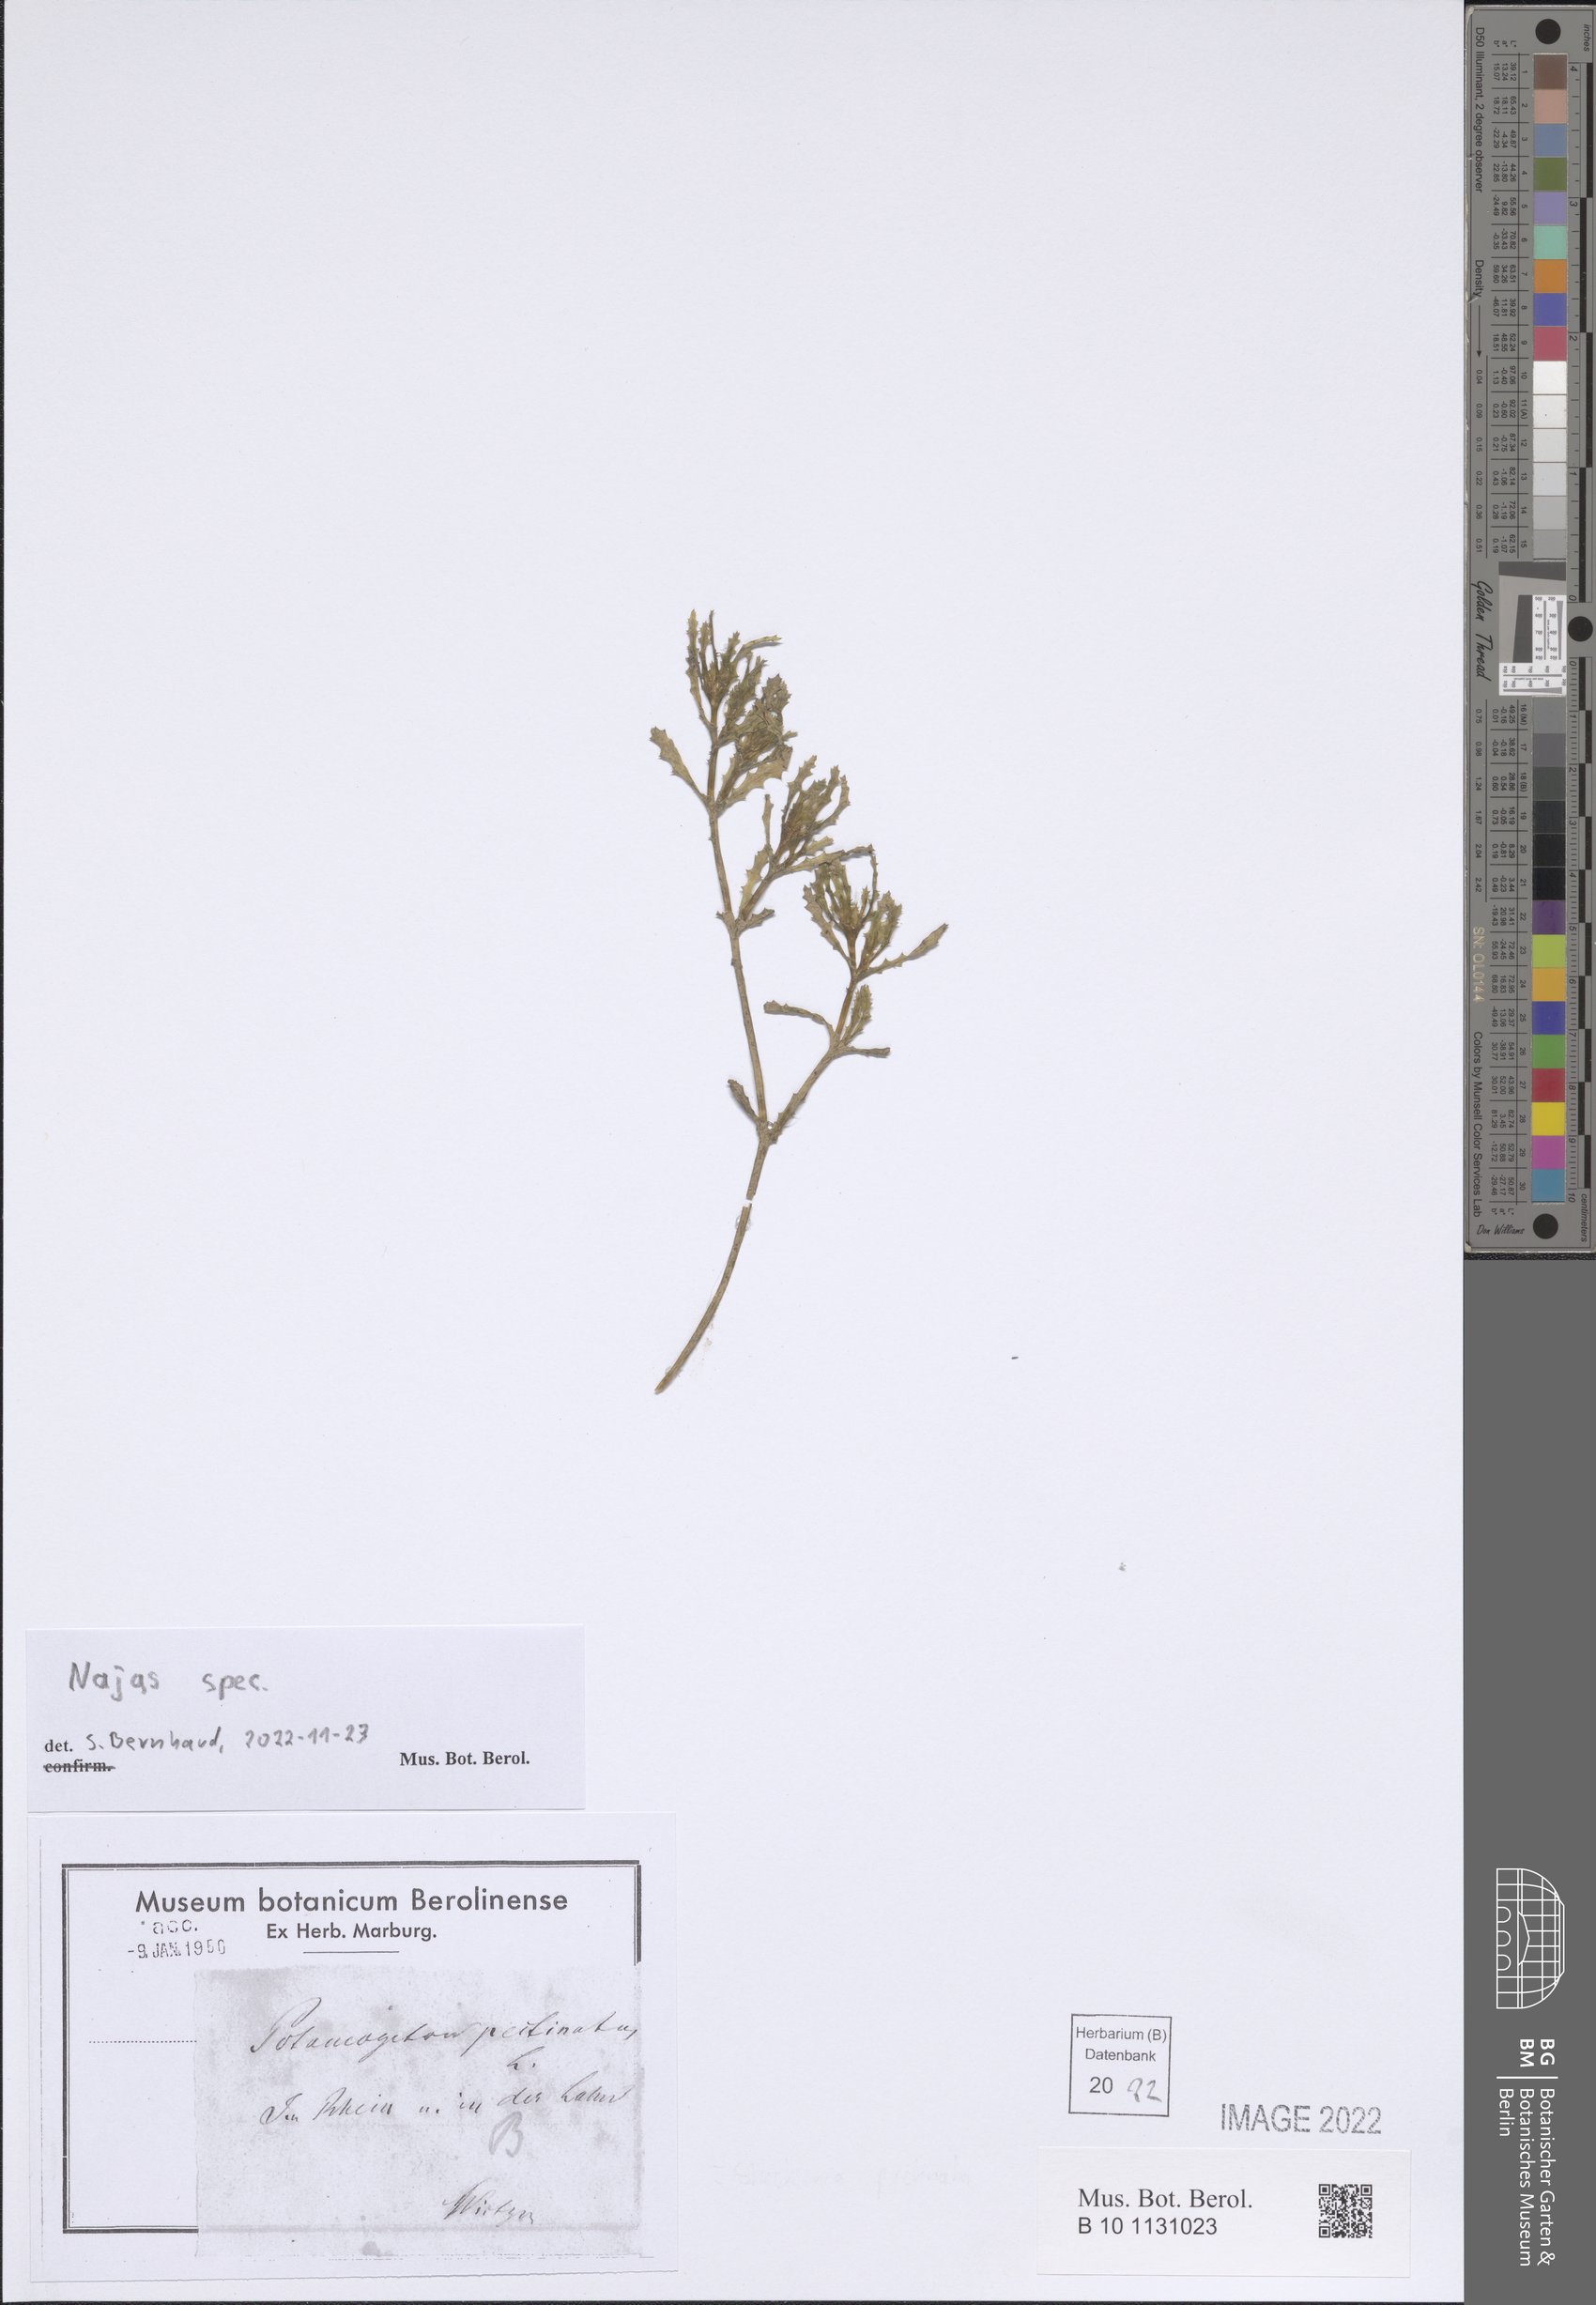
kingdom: Plantae
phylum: Tracheophyta
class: Liliopsida
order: Alismatales
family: Hydrocharitaceae
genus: Najas
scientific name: Najas
